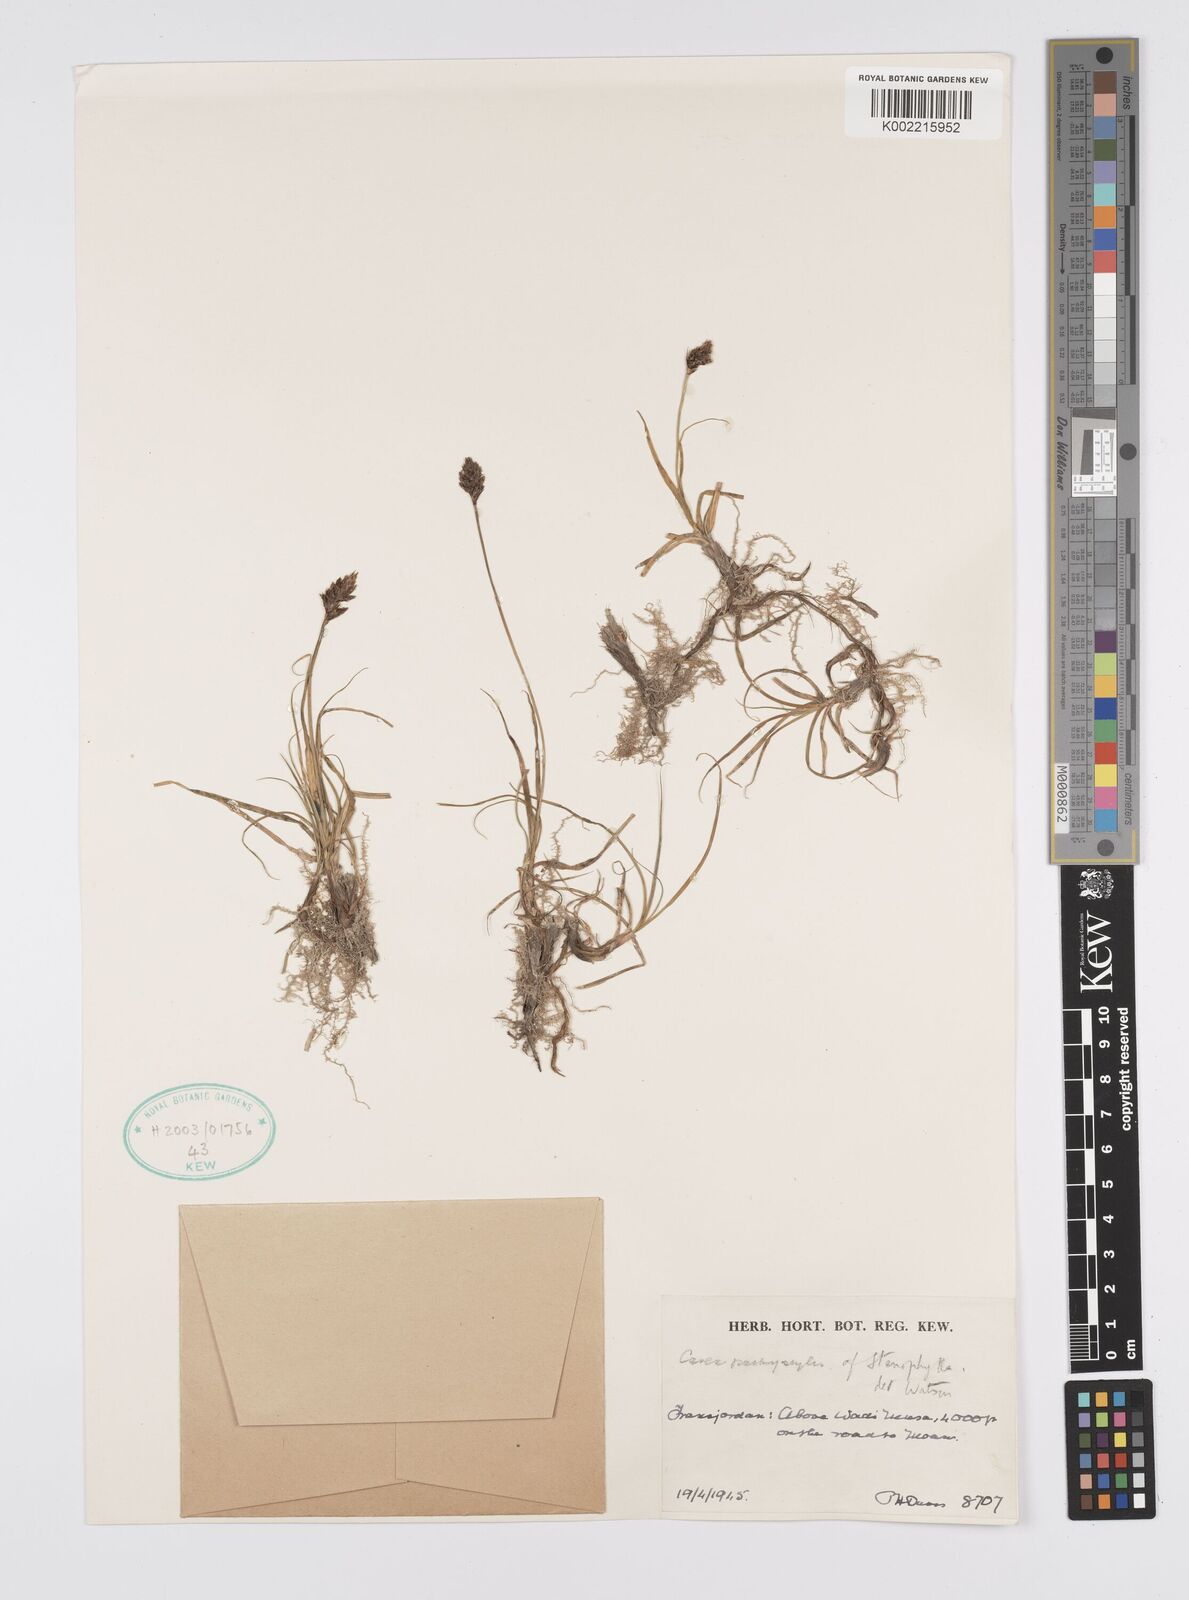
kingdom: Plantae
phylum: Tracheophyta
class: Liliopsida
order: Poales
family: Cyperaceae
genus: Carex
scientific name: Carex pachystylis
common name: Thick-stem sedge
